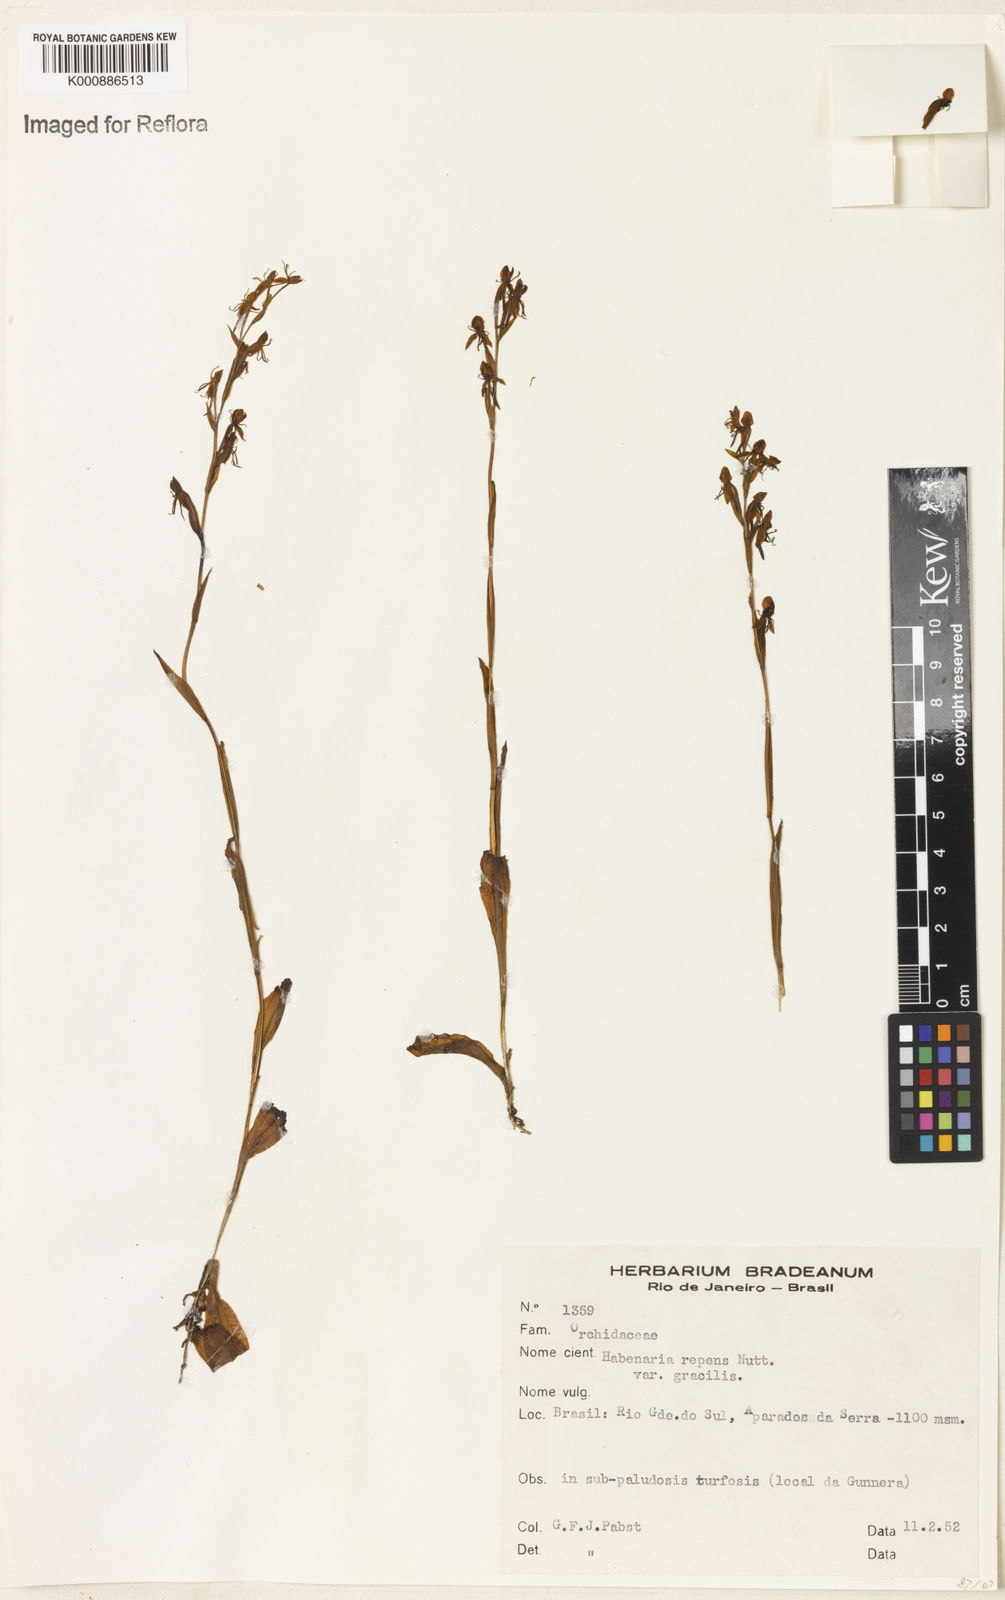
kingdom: Plantae
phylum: Tracheophyta
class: Liliopsida
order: Asparagales
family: Orchidaceae
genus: Habenaria
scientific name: Habenaria
